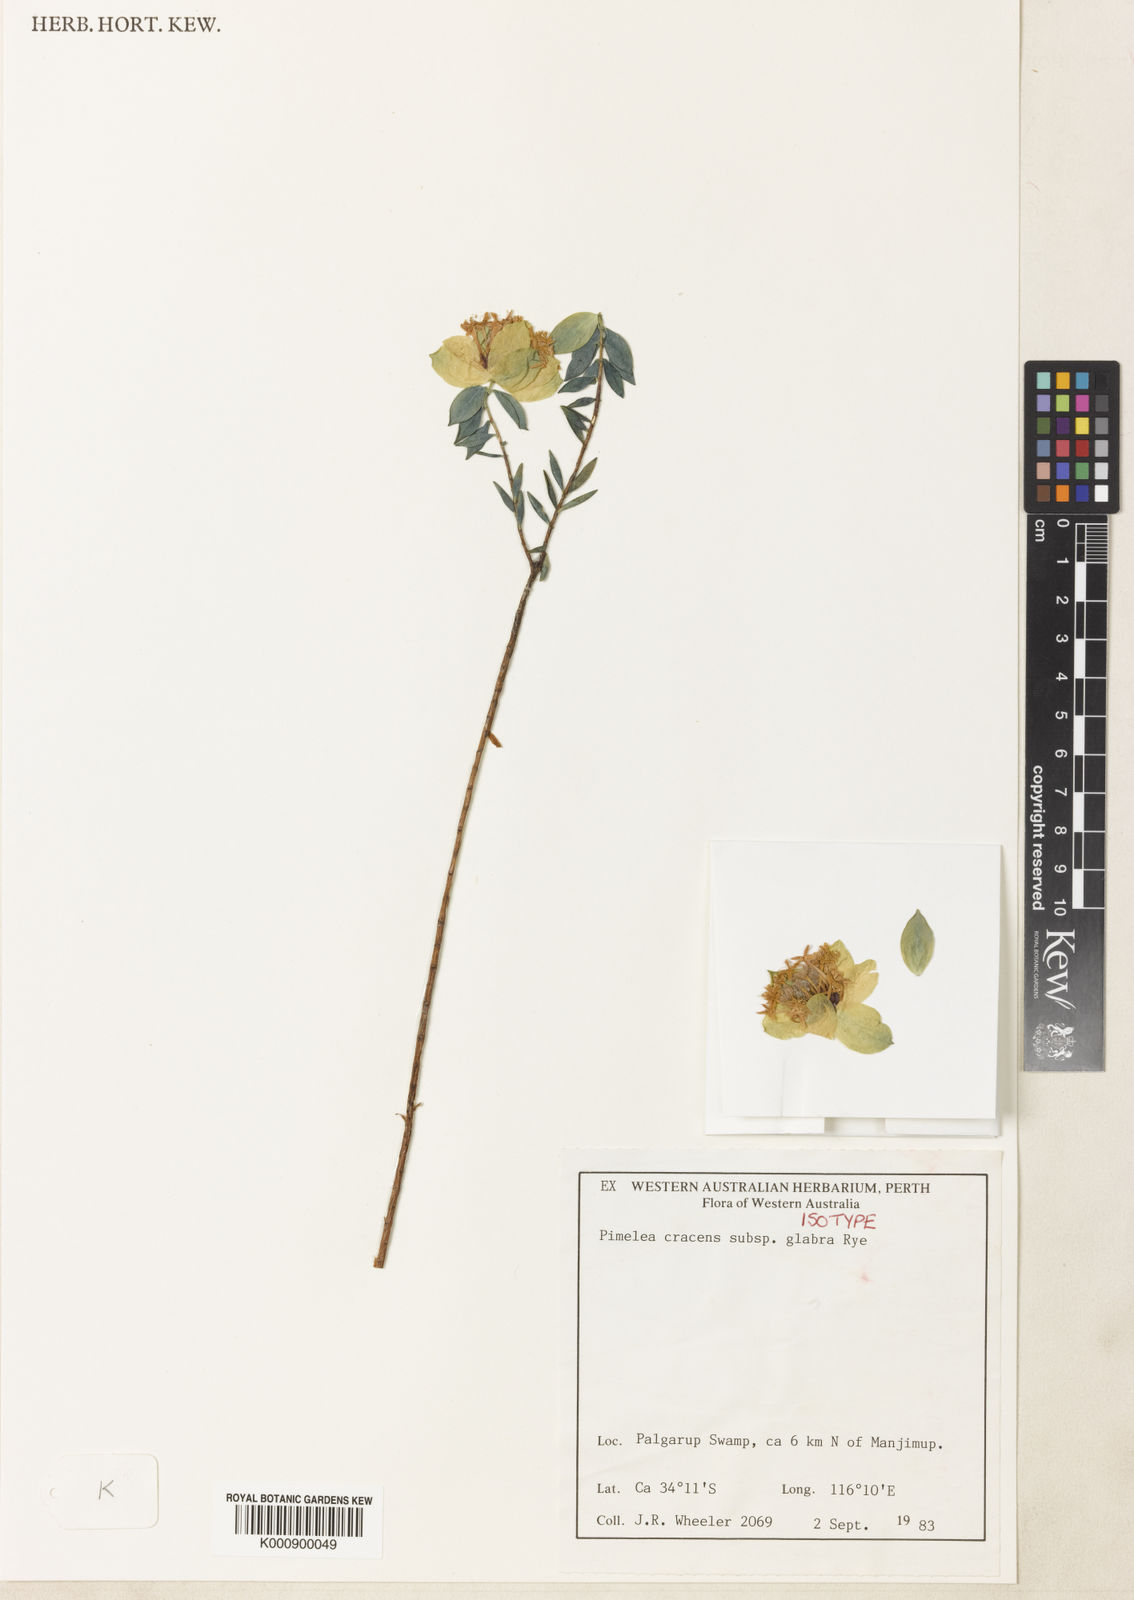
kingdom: Plantae
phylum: Tracheophyta
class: Magnoliopsida
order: Malvales
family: Thymelaeaceae
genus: Pimelea
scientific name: Pimelea cracens
